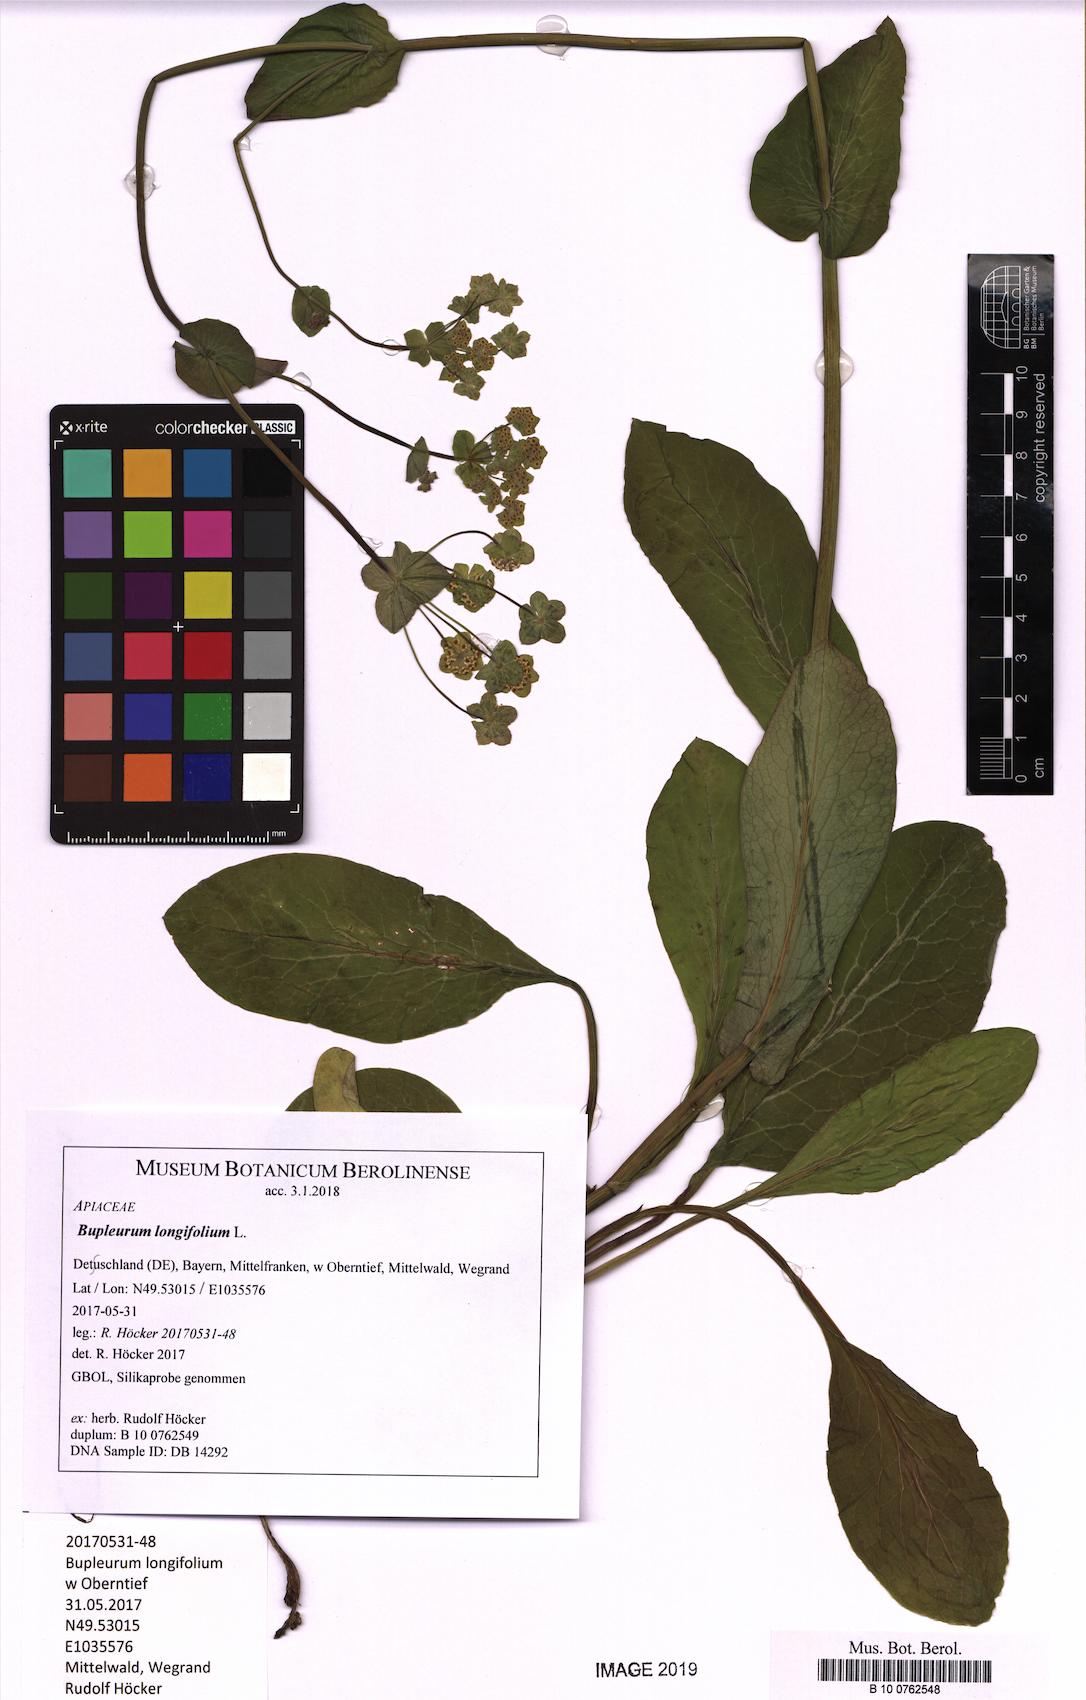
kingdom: Plantae
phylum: Tracheophyta
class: Magnoliopsida
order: Apiales
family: Apiaceae
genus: Bupleurum
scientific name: Bupleurum longifolium
